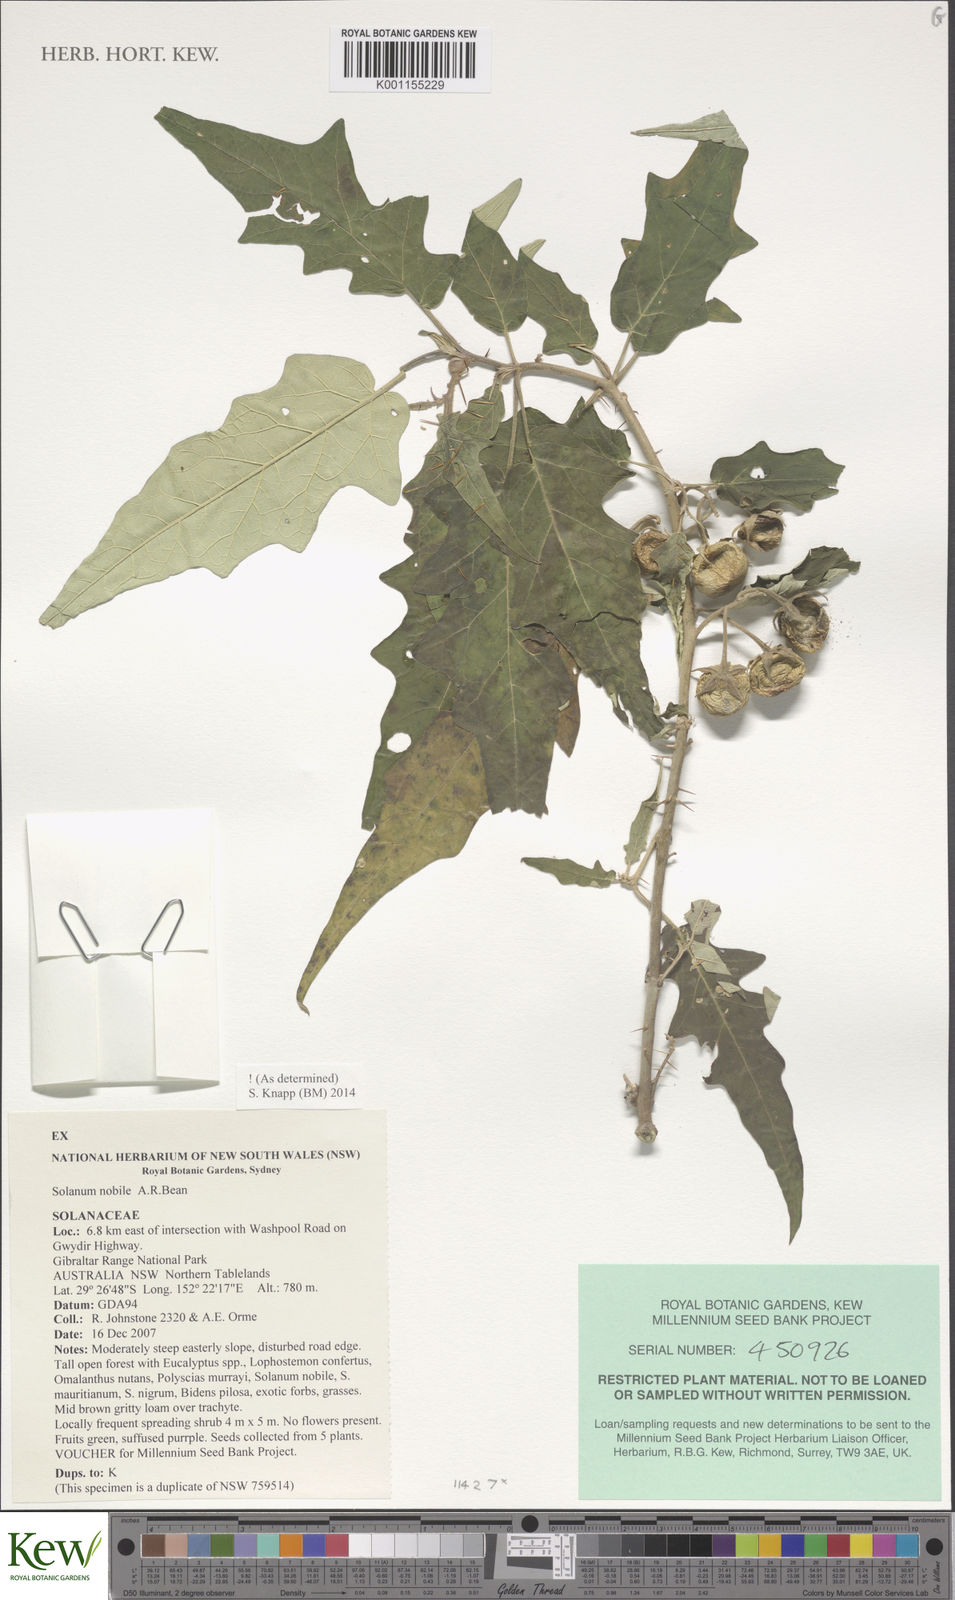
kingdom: Plantae
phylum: Tracheophyta
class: Magnoliopsida
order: Solanales
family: Solanaceae
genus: Solanum
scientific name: Solanum nobile
